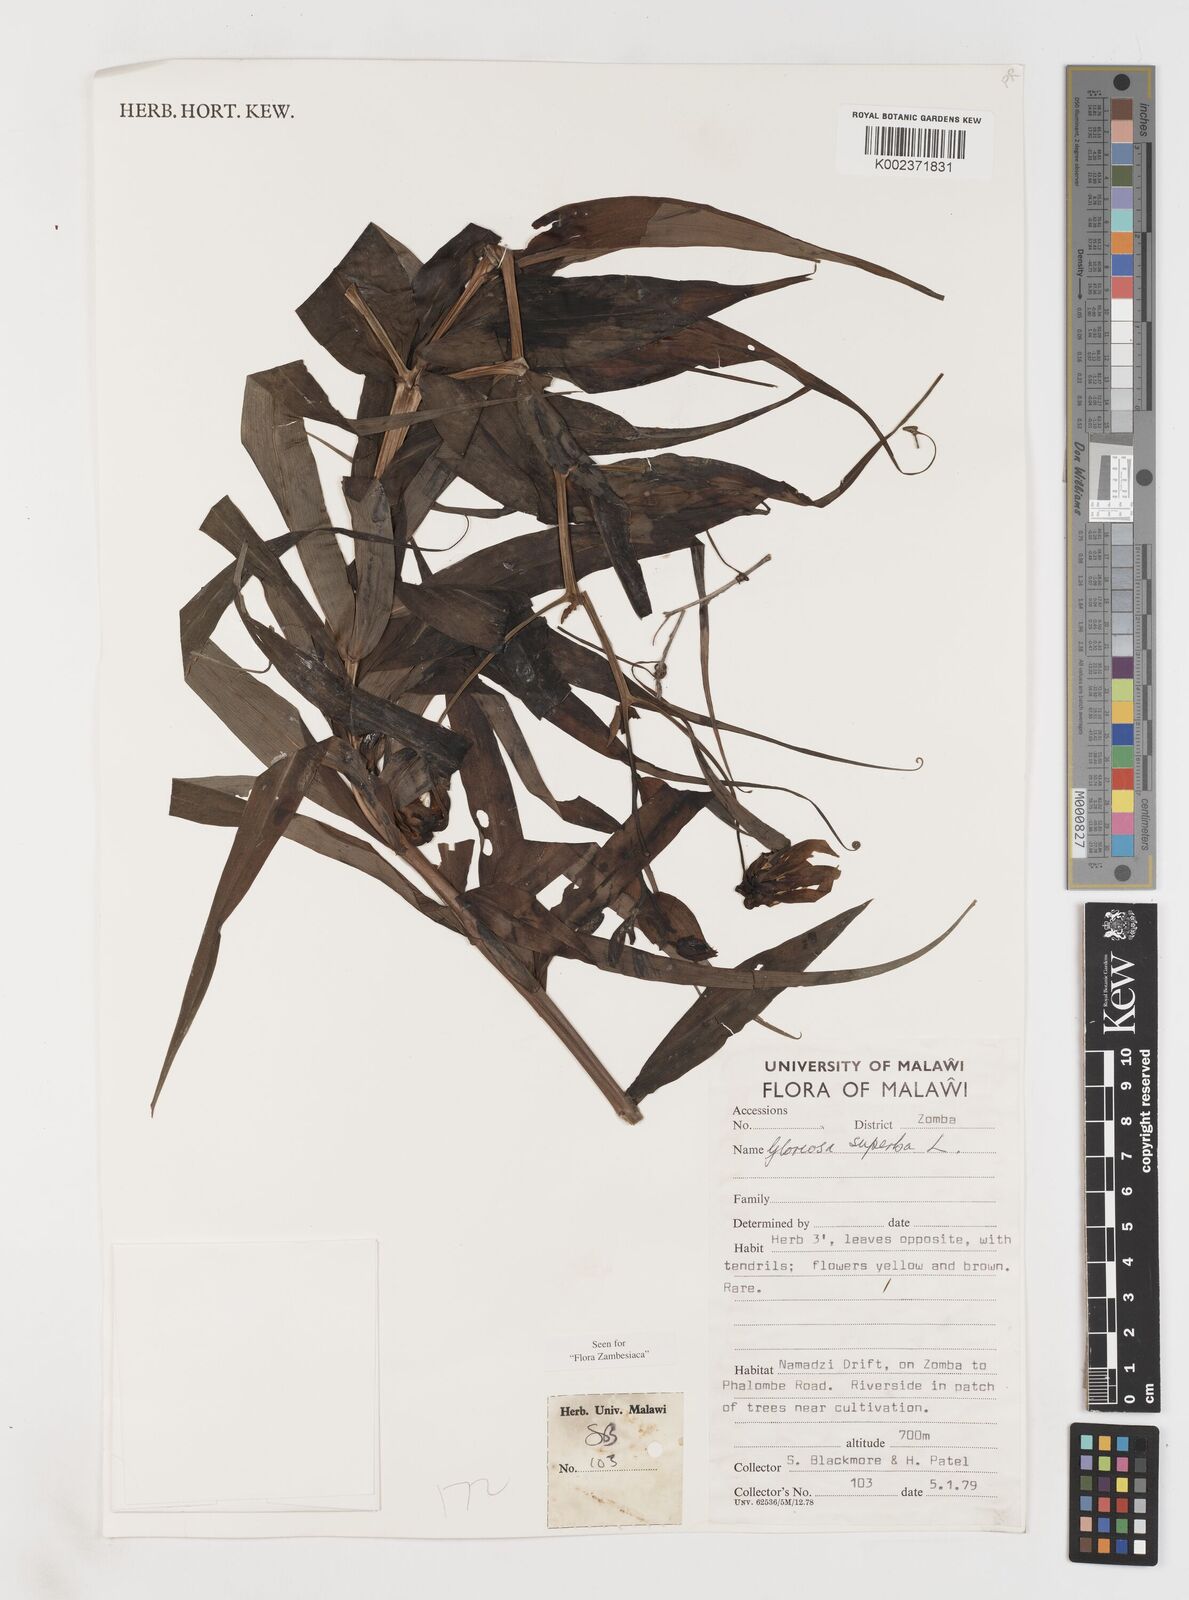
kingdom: Plantae
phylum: Tracheophyta
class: Liliopsida
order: Liliales
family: Colchicaceae
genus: Gloriosa
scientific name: Gloriosa simplex
